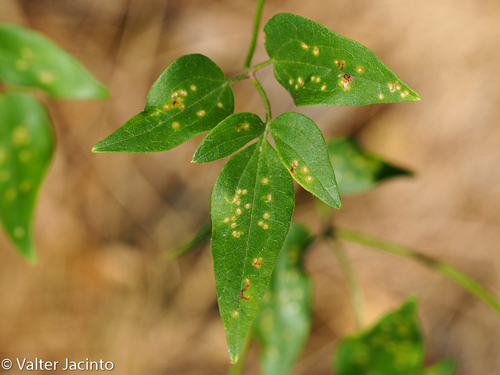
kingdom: Plantae
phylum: Tracheophyta
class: Magnoliopsida
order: Ranunculales
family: Ranunculaceae
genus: Clematis
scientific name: Clematis flammula
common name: Virgin's-bower
